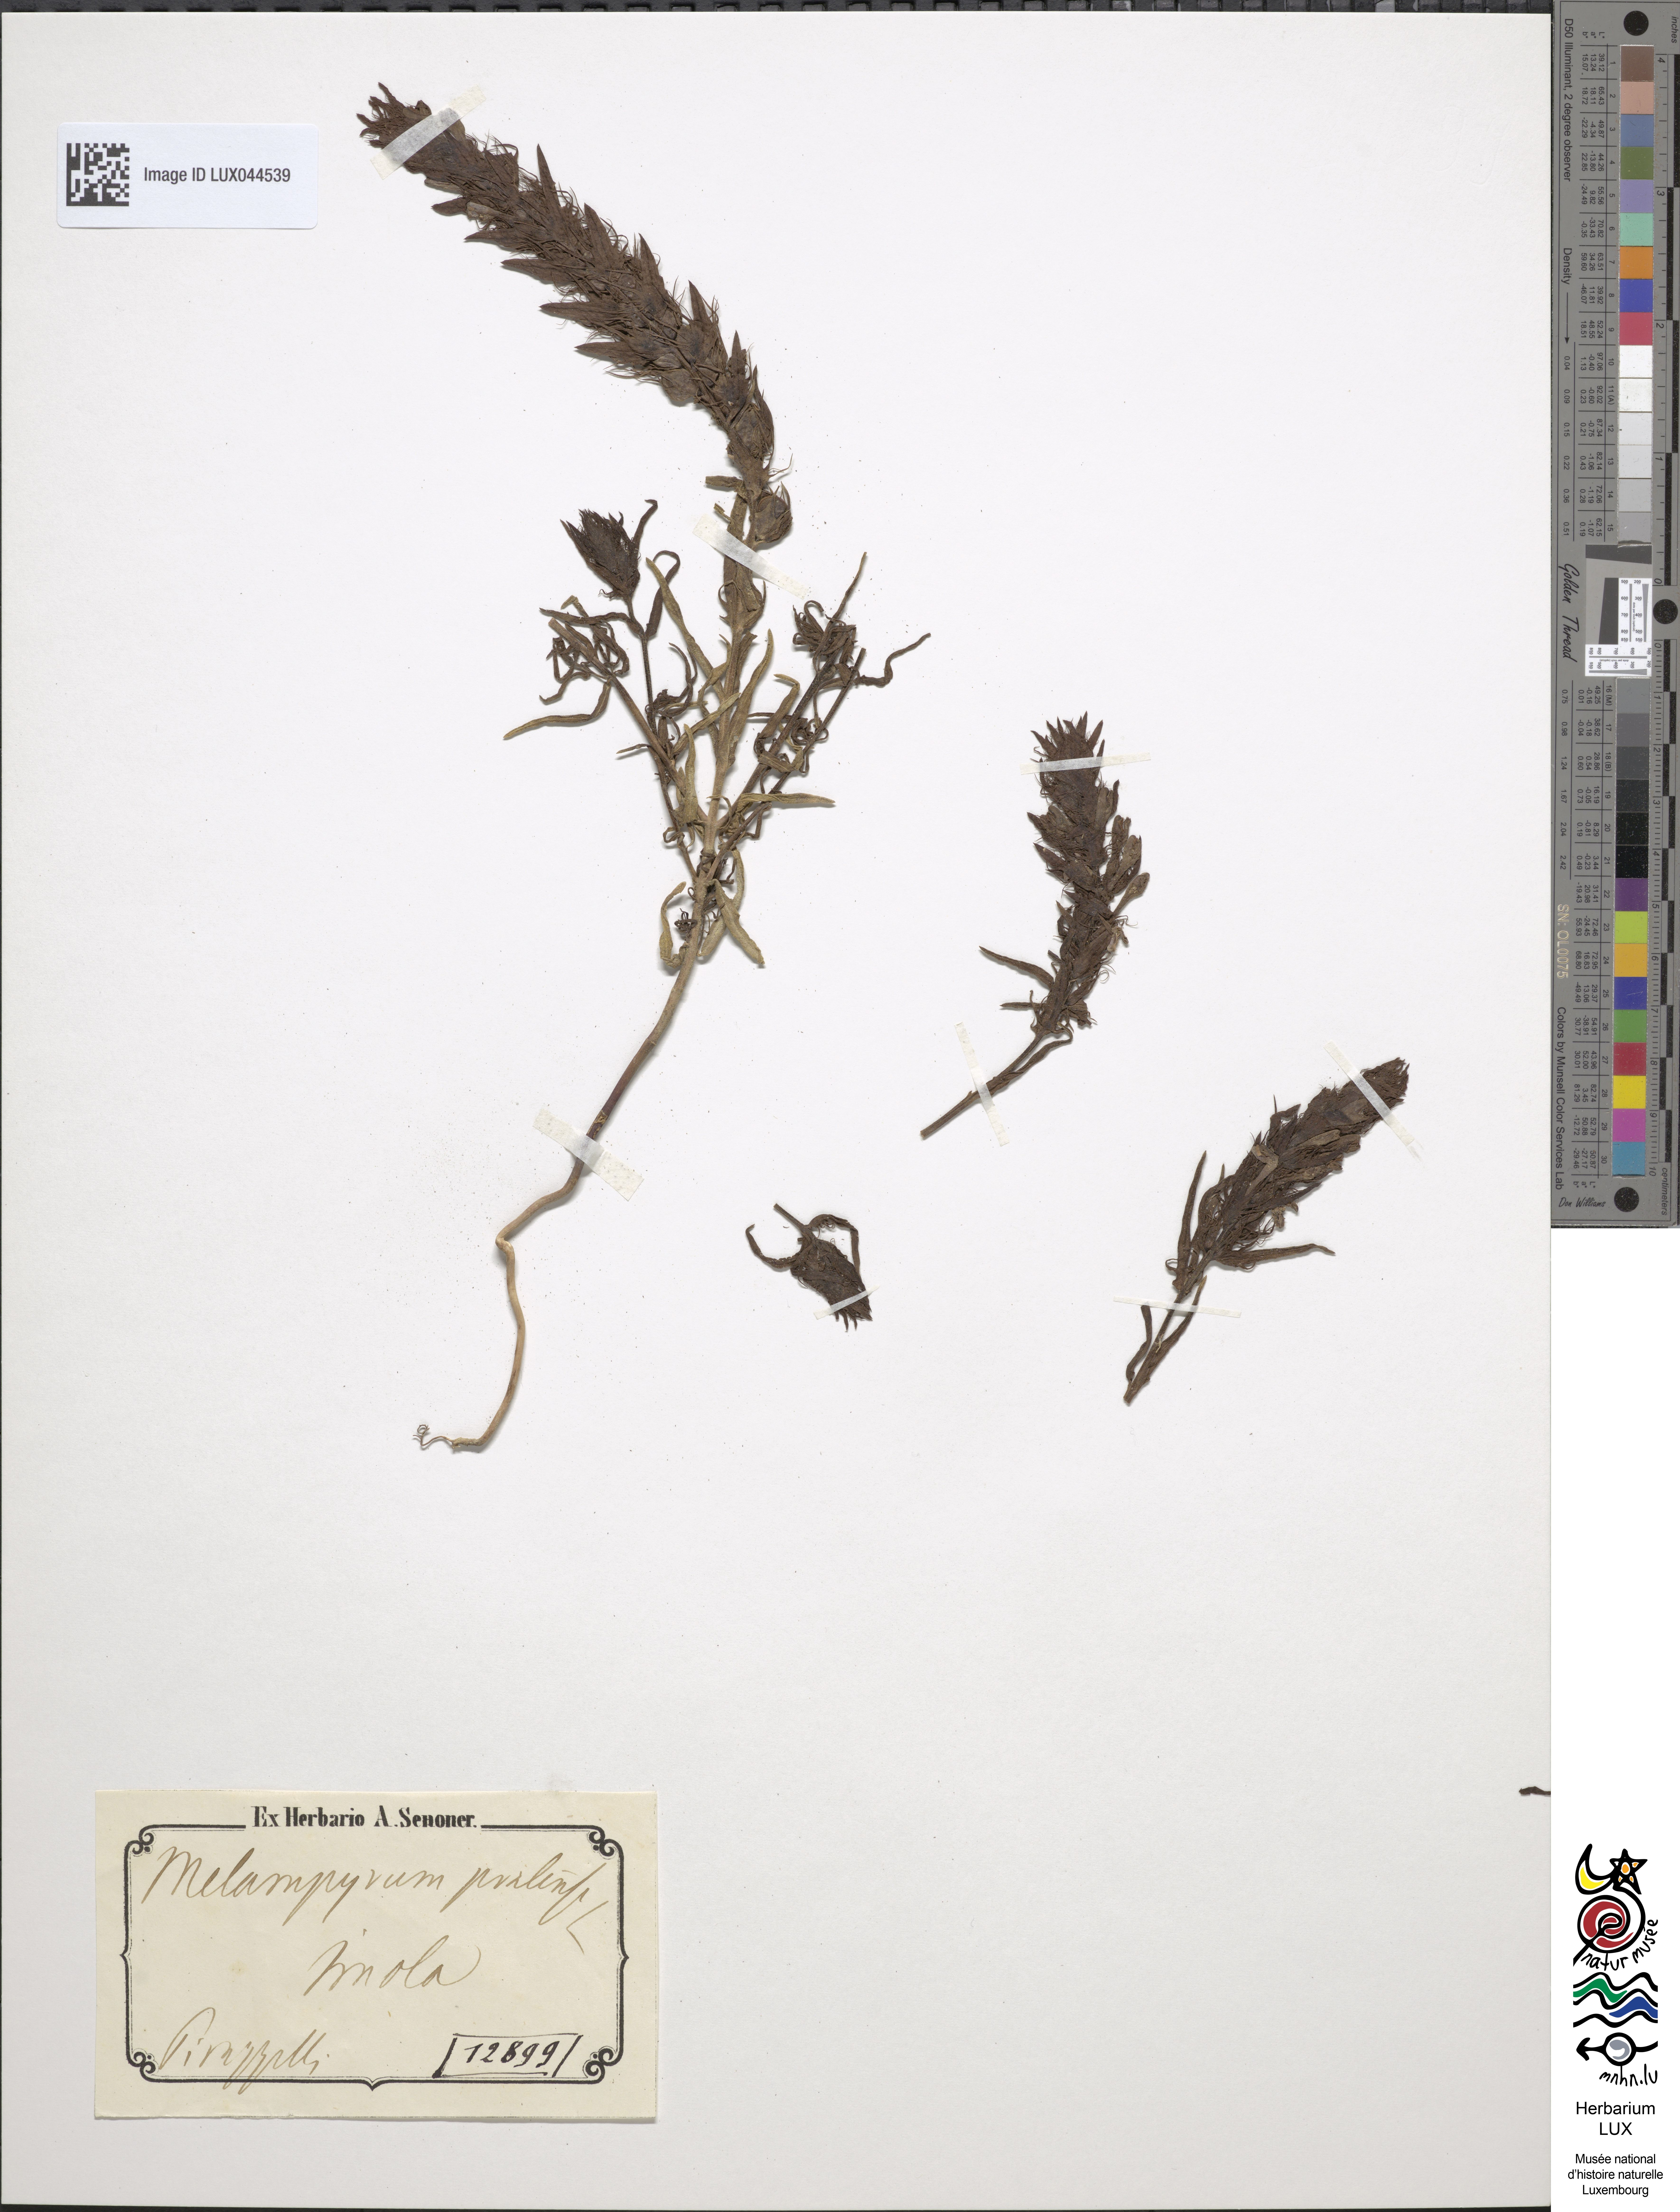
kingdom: Plantae
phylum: Tracheophyta
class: Magnoliopsida
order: Lamiales
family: Orobanchaceae
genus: Melampyrum
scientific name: Melampyrum pratense
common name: Common cow-wheat
